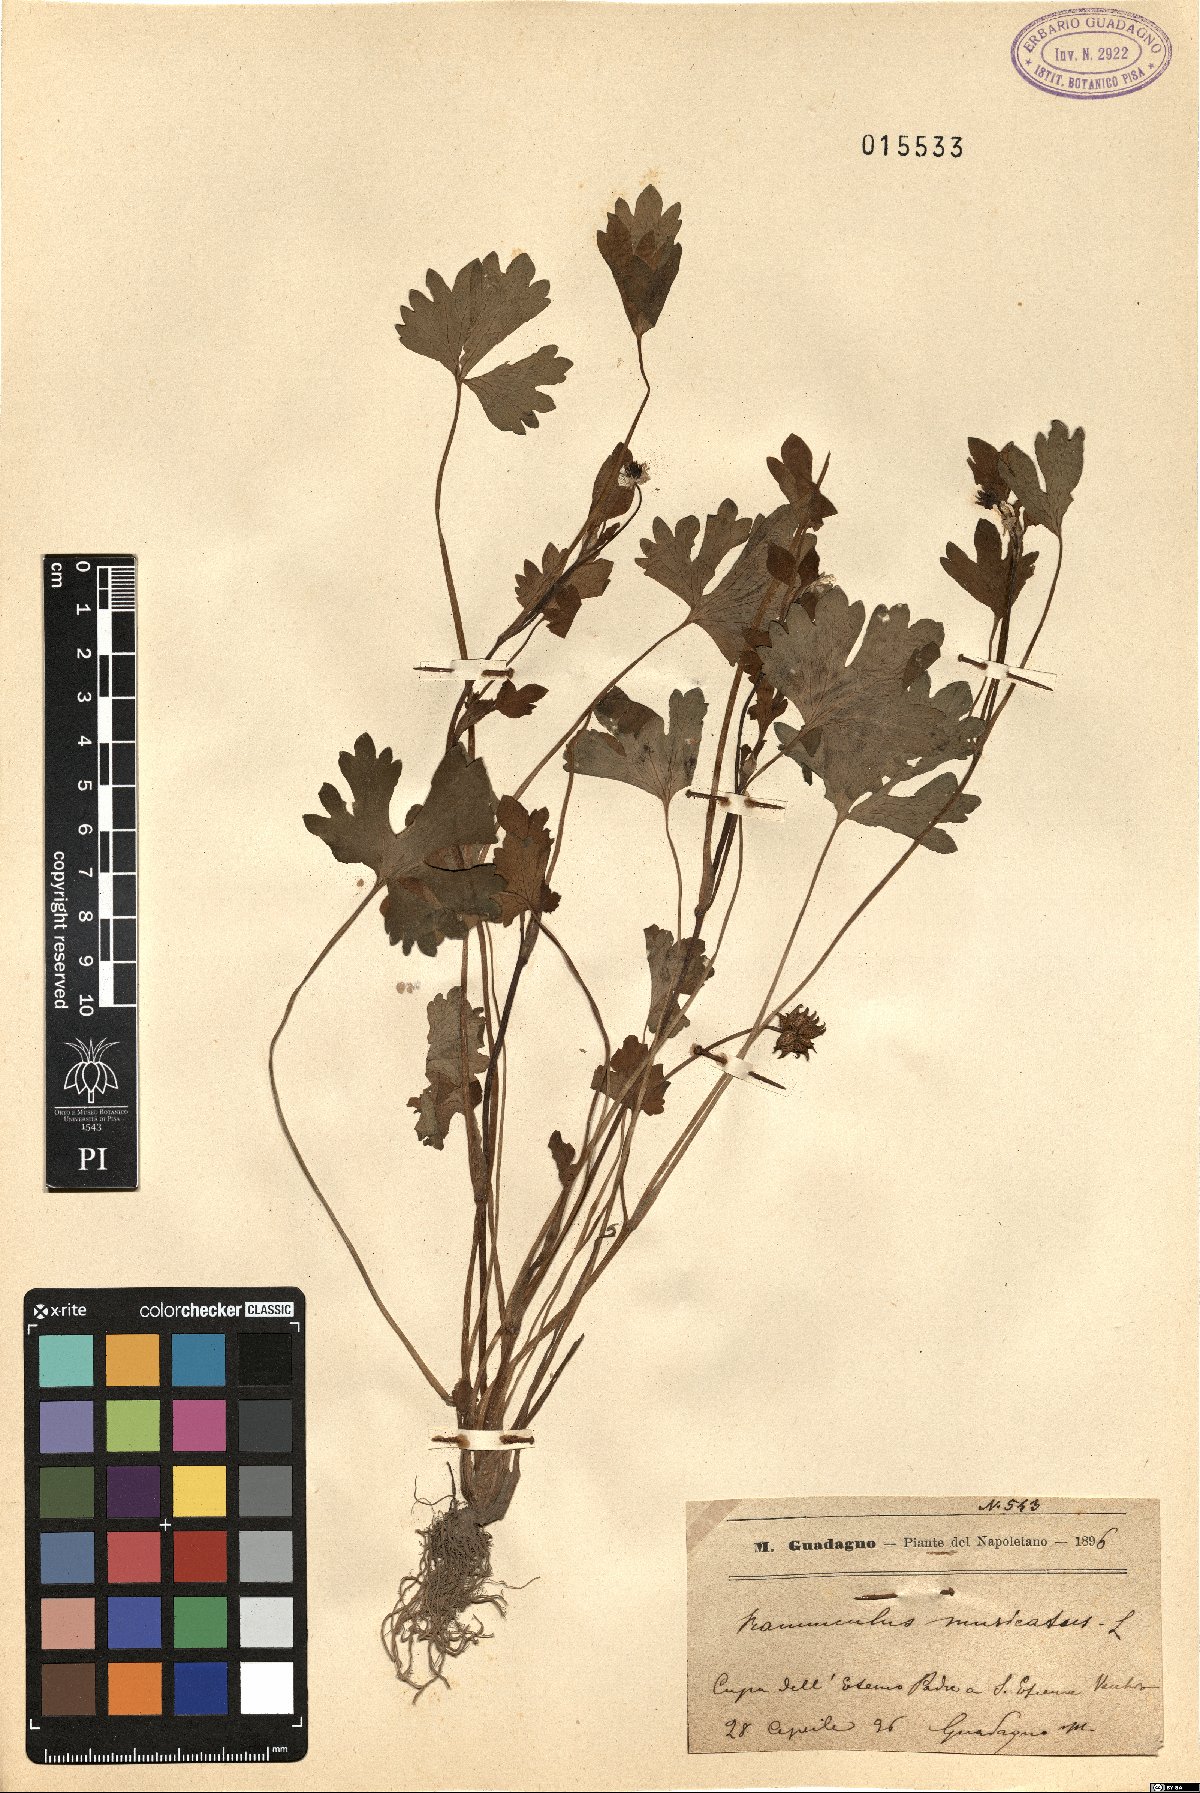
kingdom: Plantae
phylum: Tracheophyta
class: Magnoliopsida
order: Ranunculales
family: Ranunculaceae
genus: Ranunculus
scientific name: Ranunculus muricatus
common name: Rough-fruited buttercup
